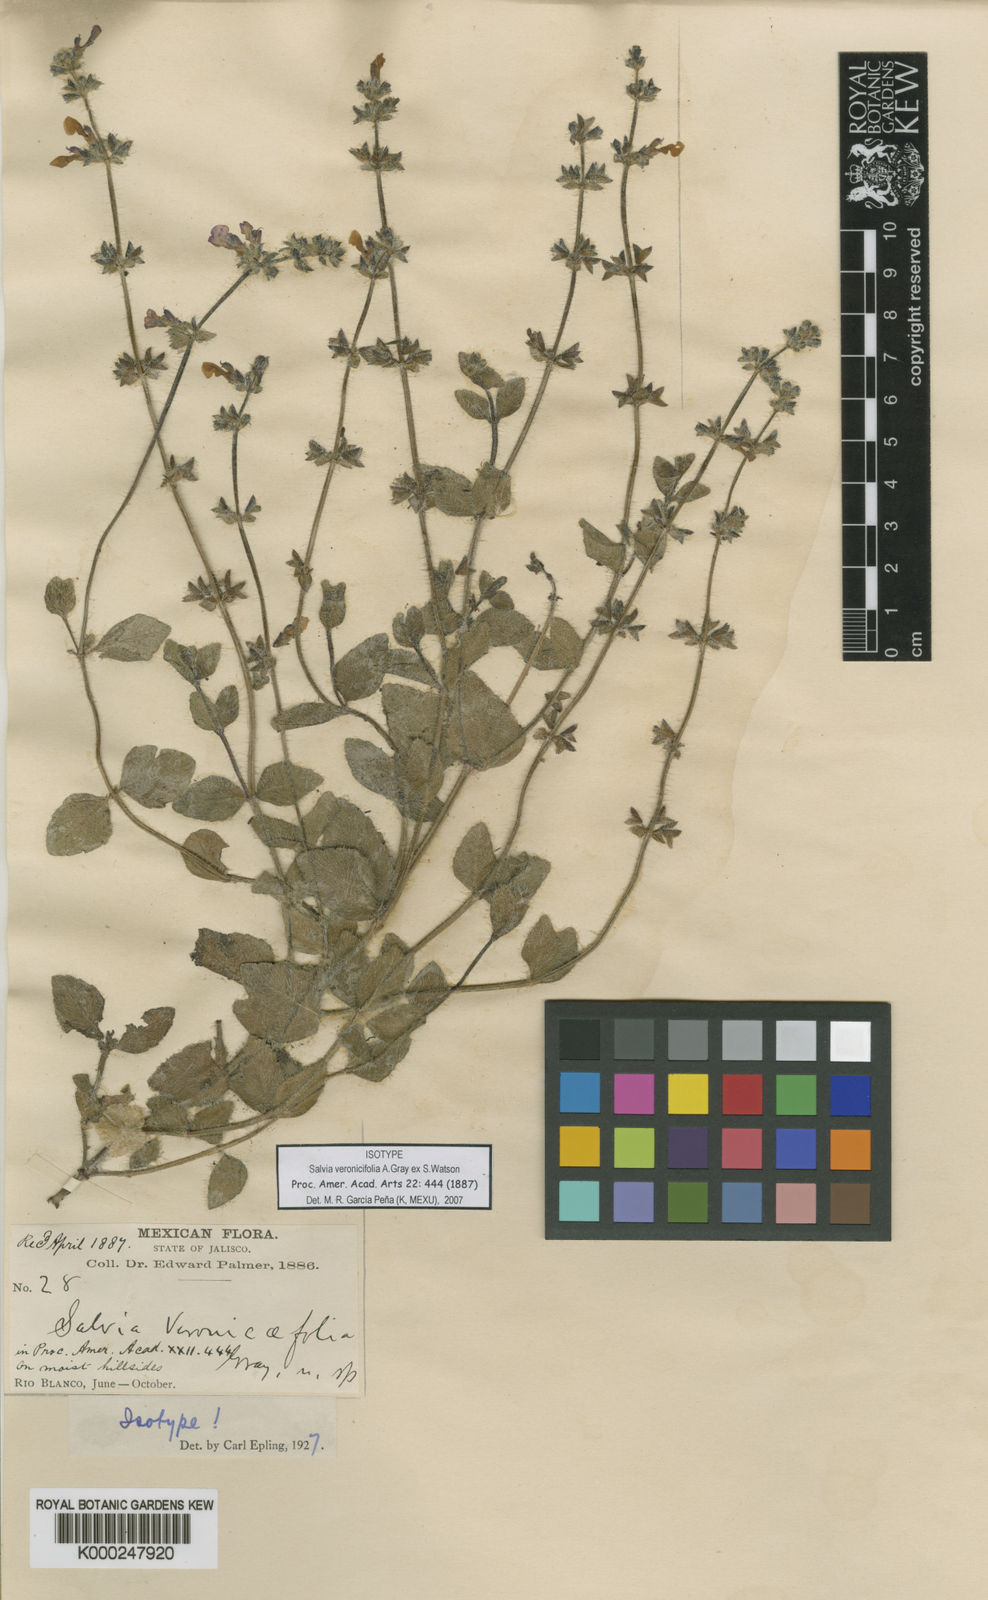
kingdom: Plantae
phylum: Tracheophyta
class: Magnoliopsida
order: Lamiales
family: Lamiaceae
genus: Salvia
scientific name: Salvia
